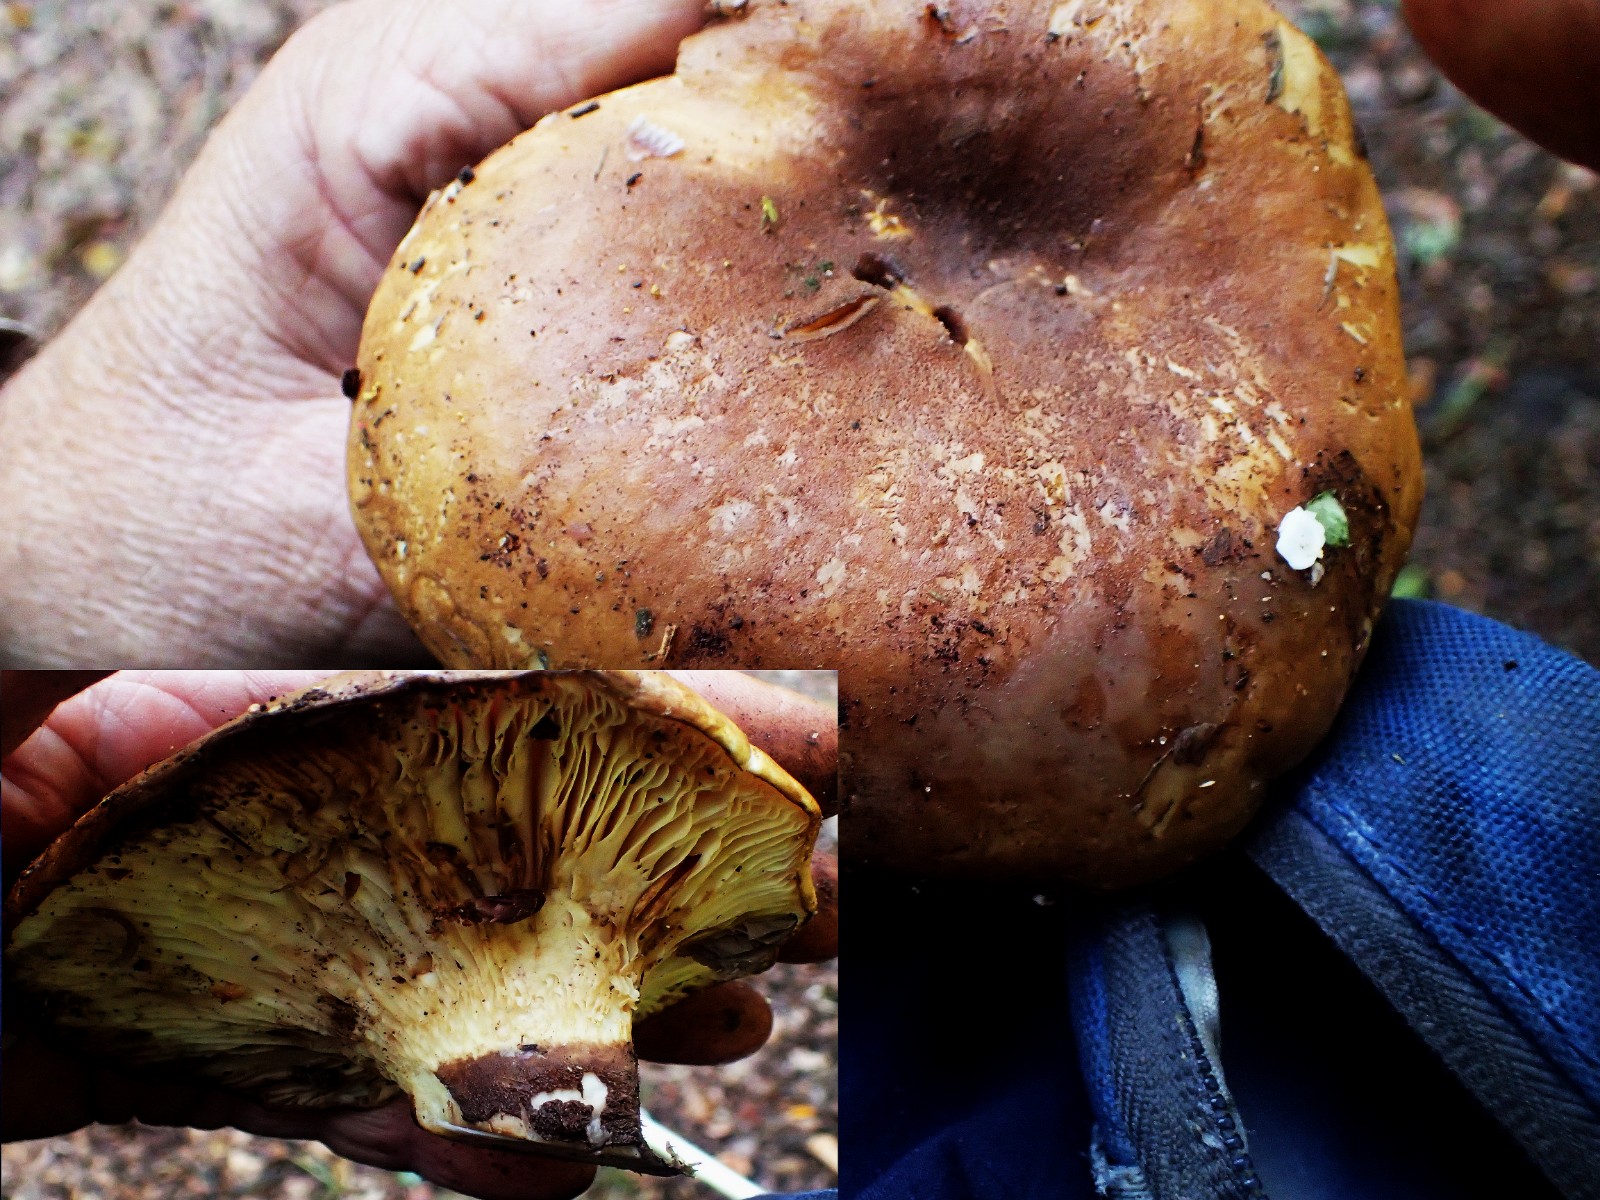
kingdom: Fungi
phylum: Basidiomycota
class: Agaricomycetes
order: Boletales
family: Tapinellaceae
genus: Tapinella
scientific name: Tapinella atrotomentosa
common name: sortfiltet viftesvamp
